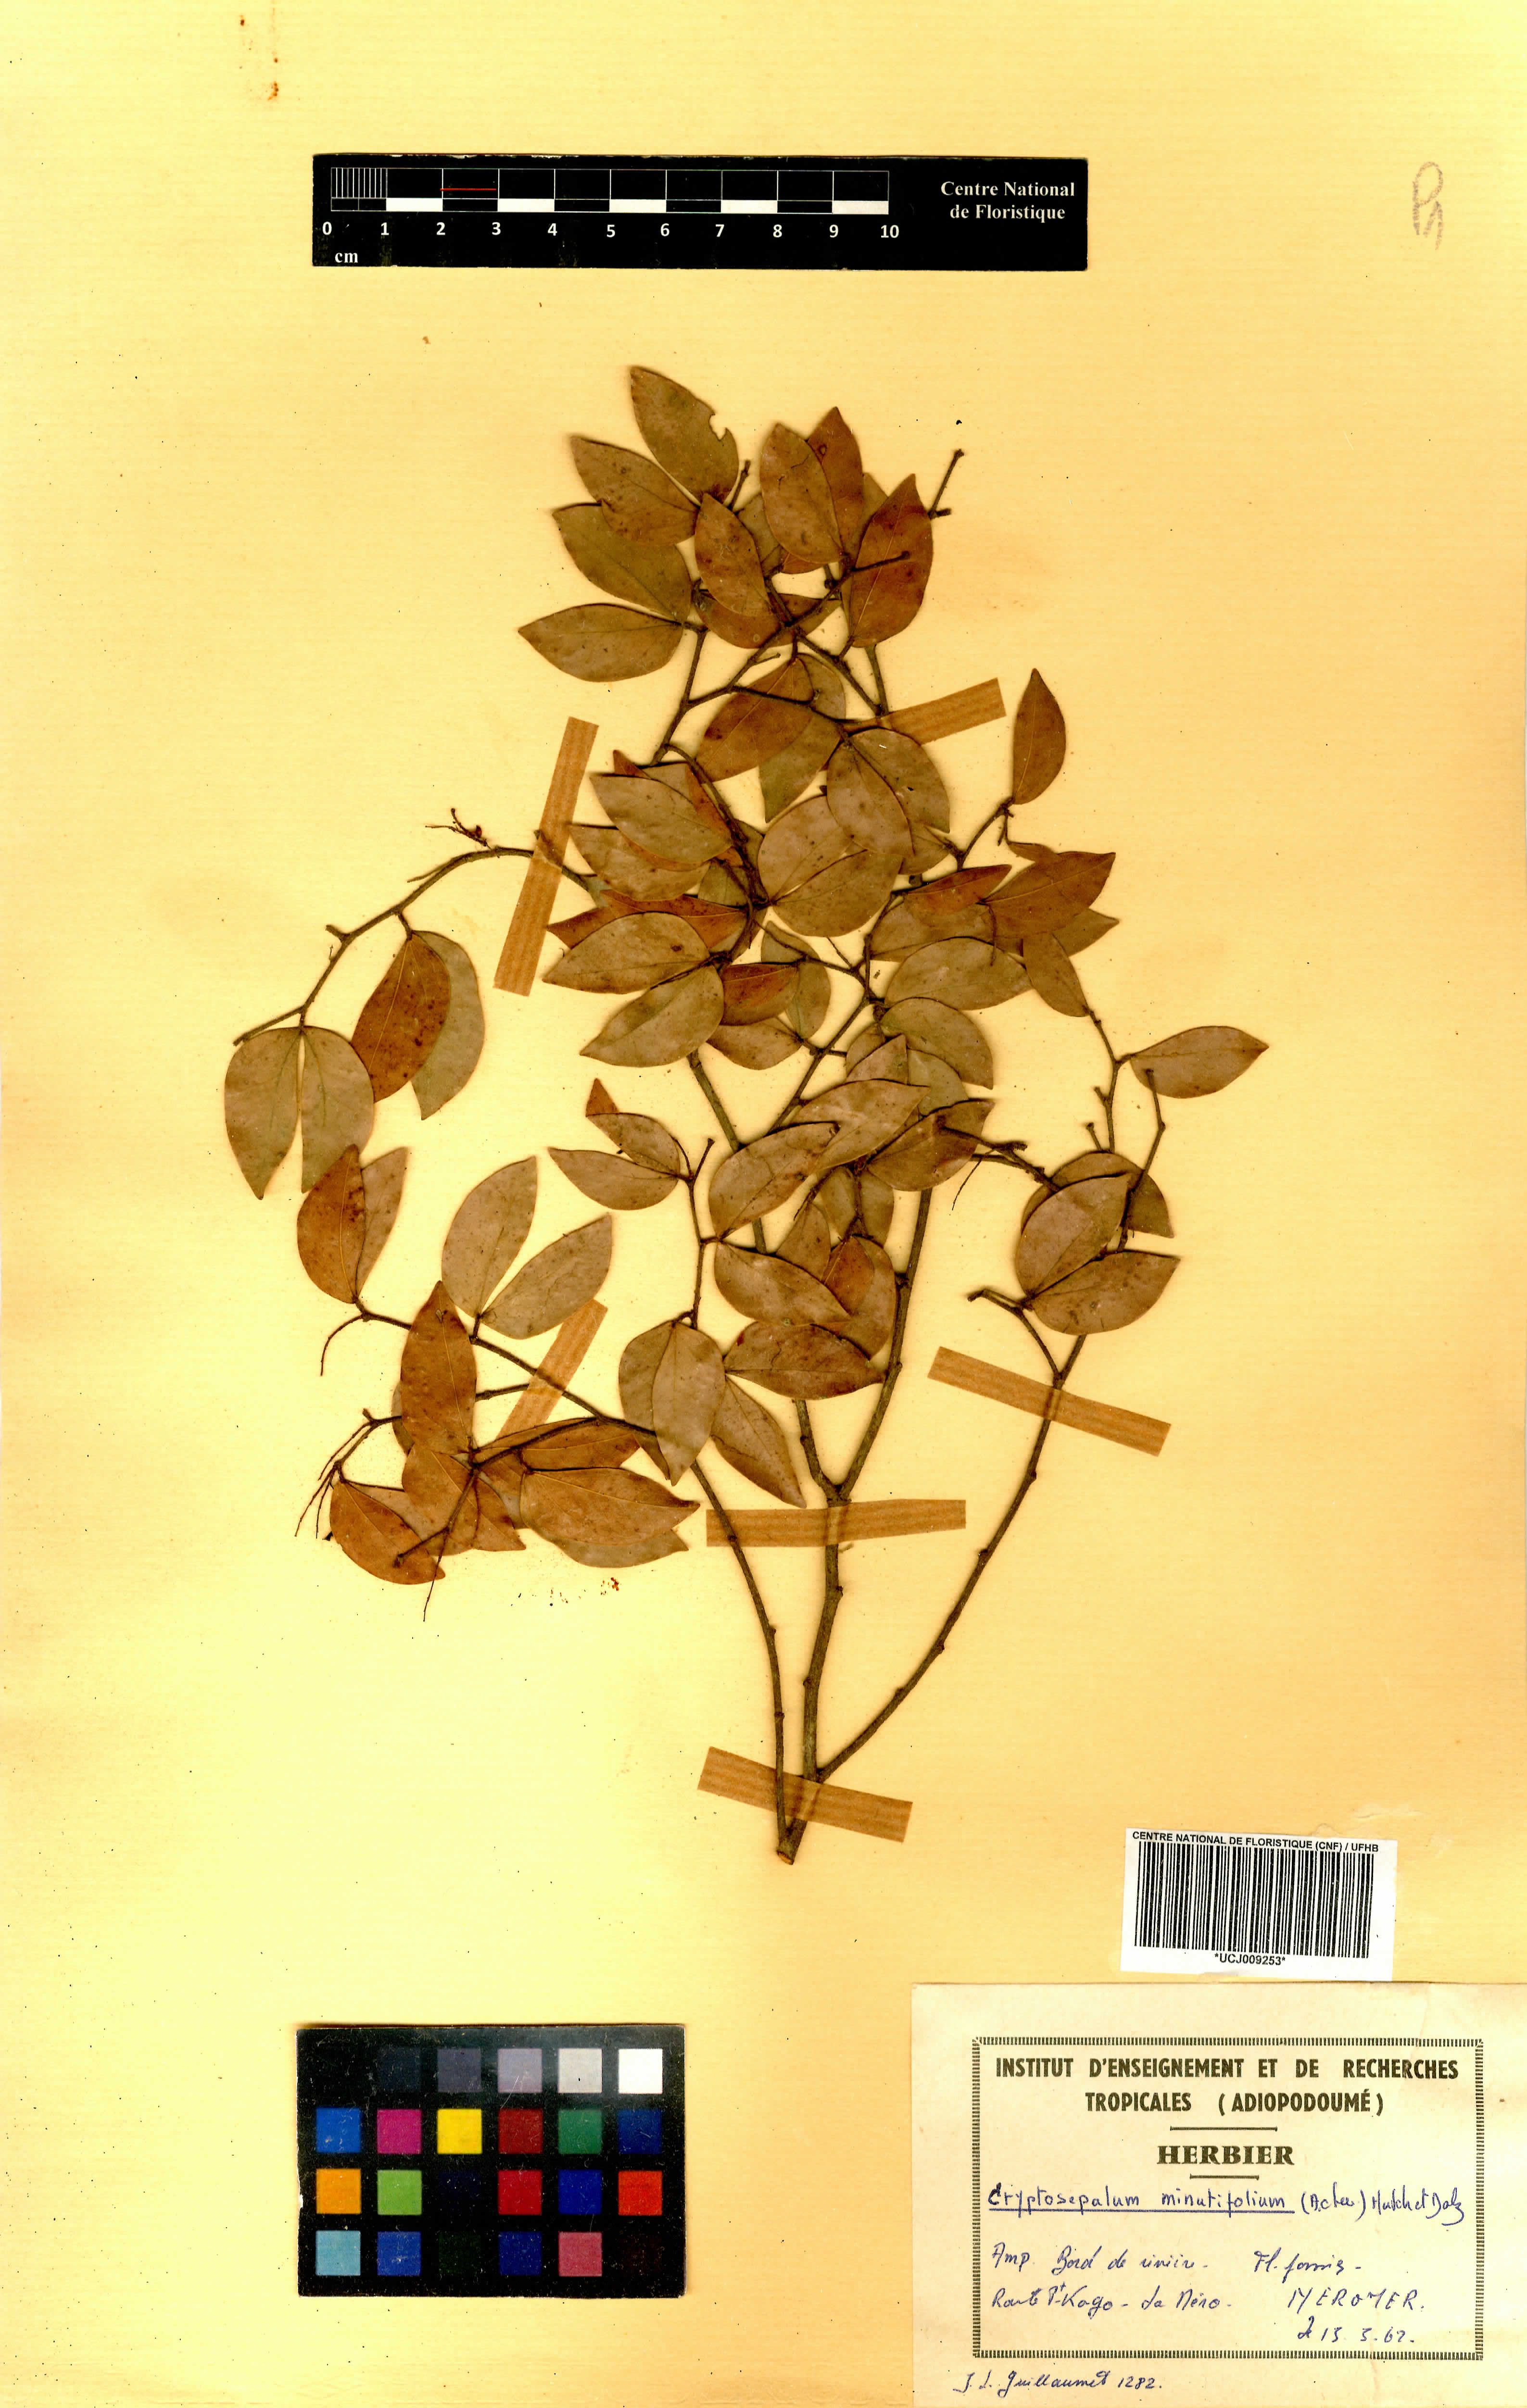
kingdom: Plantae
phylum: Tracheophyta
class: Magnoliopsida
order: Fabales
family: Fabaceae
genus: Cryptosepalum
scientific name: Cryptosepalum minutifolium
